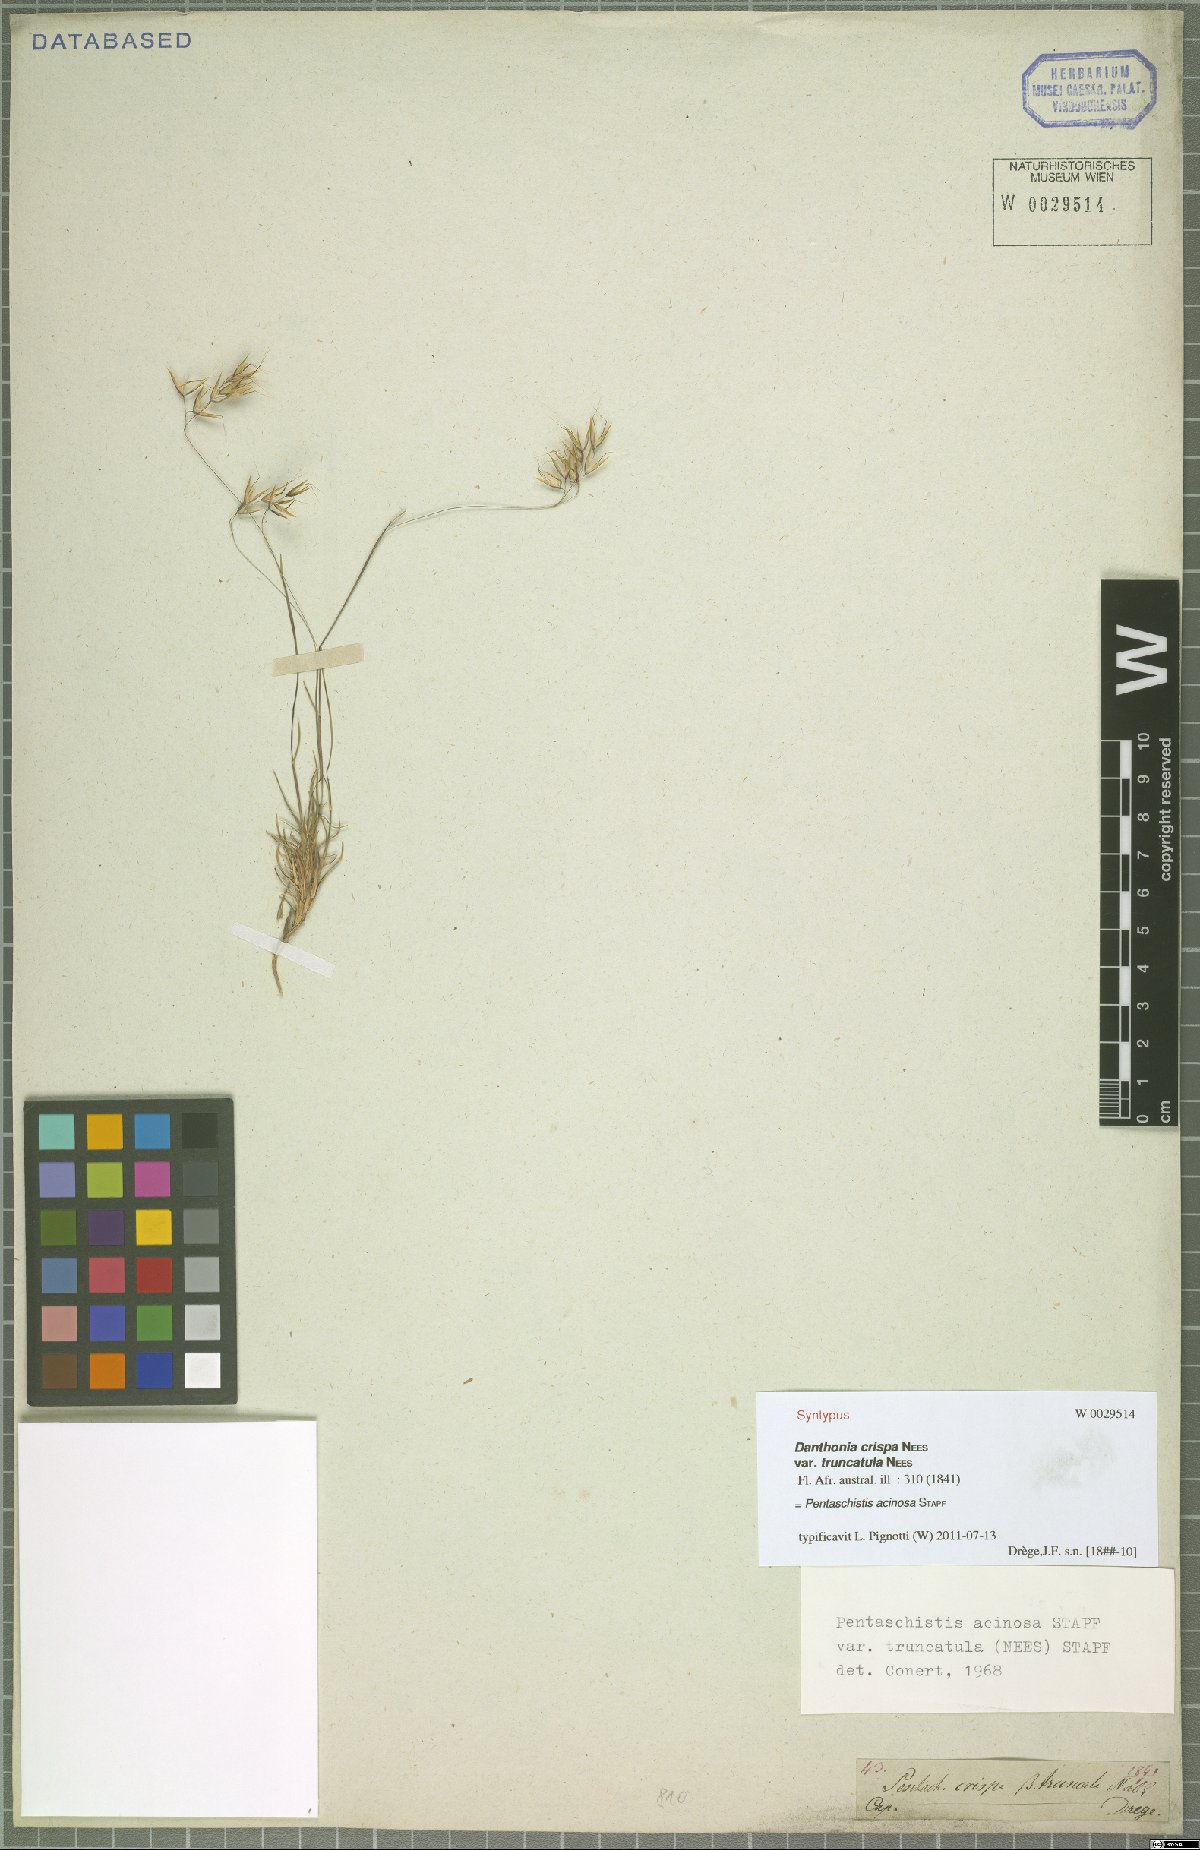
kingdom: Plantae
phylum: Tracheophyta
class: Liliopsida
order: Poales
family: Poaceae
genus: Pentameris
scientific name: Pentameris acinosa
